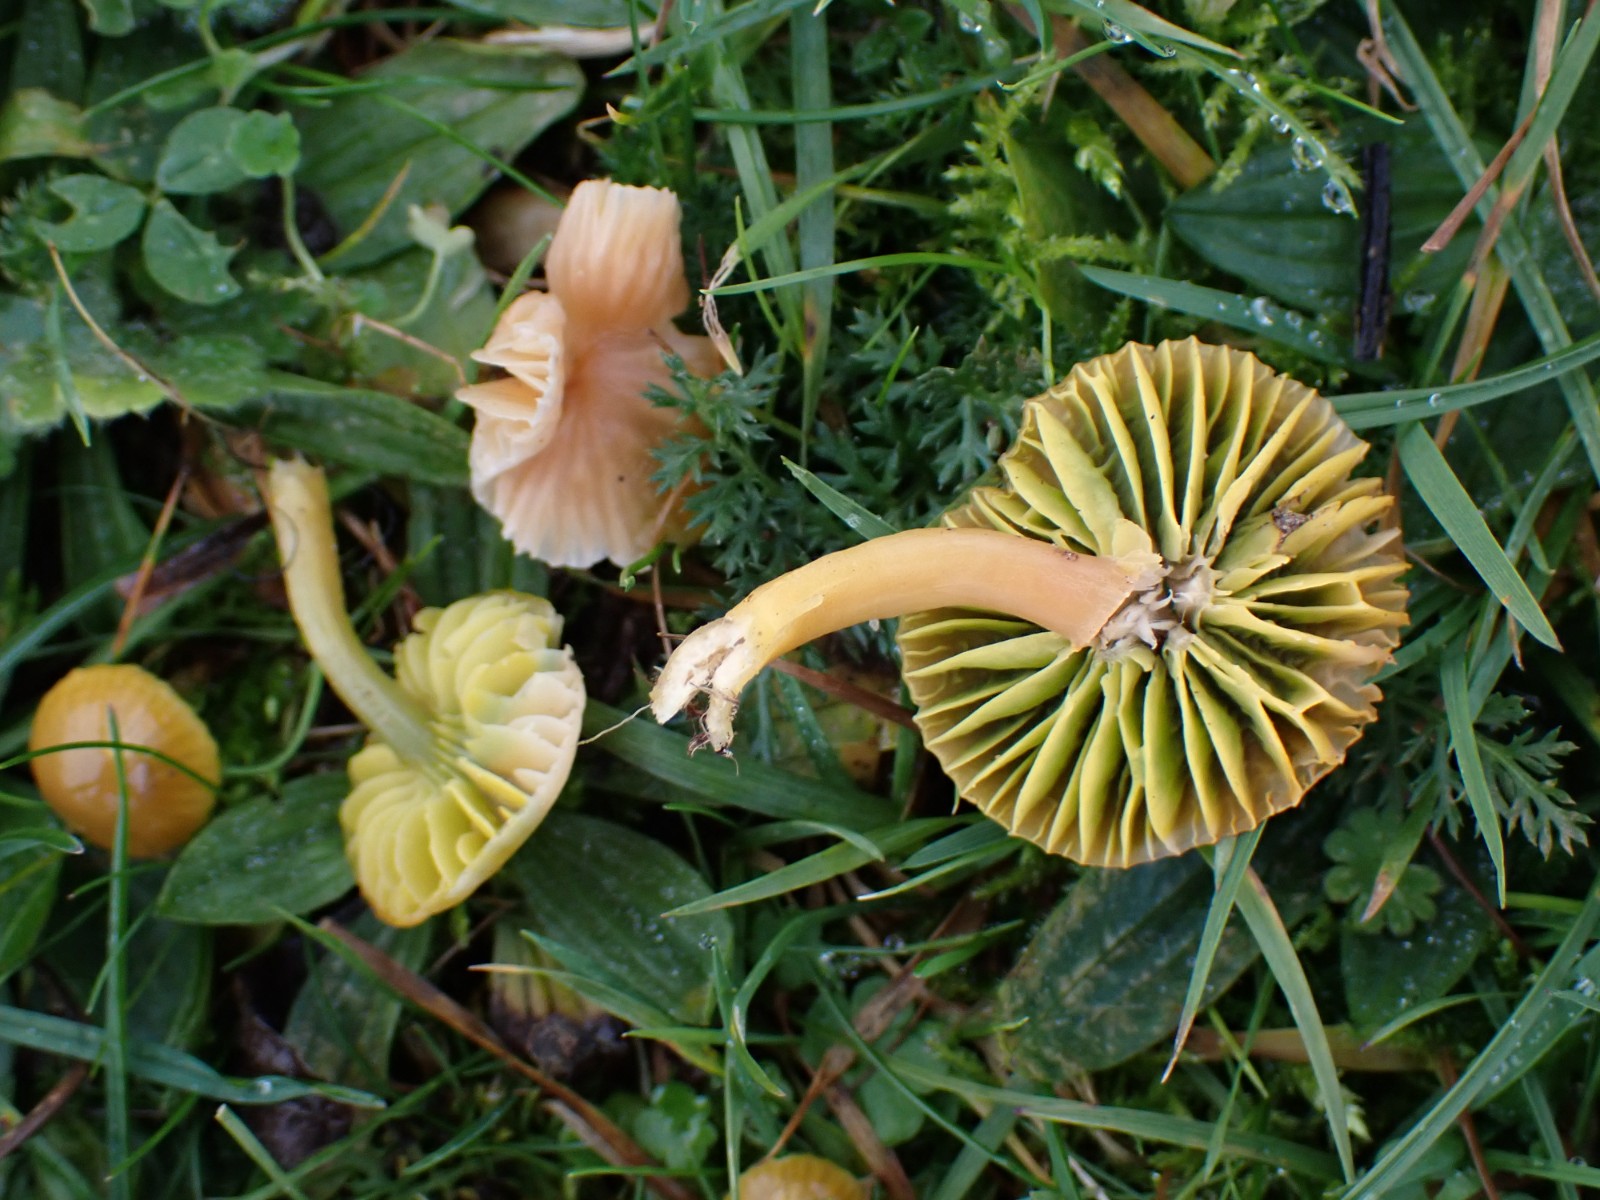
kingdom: Fungi
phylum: Basidiomycota
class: Agaricomycetes
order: Agaricales
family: Hygrophoraceae
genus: Gliophorus
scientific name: Gliophorus psittacinus
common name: papegøje-vokshat
